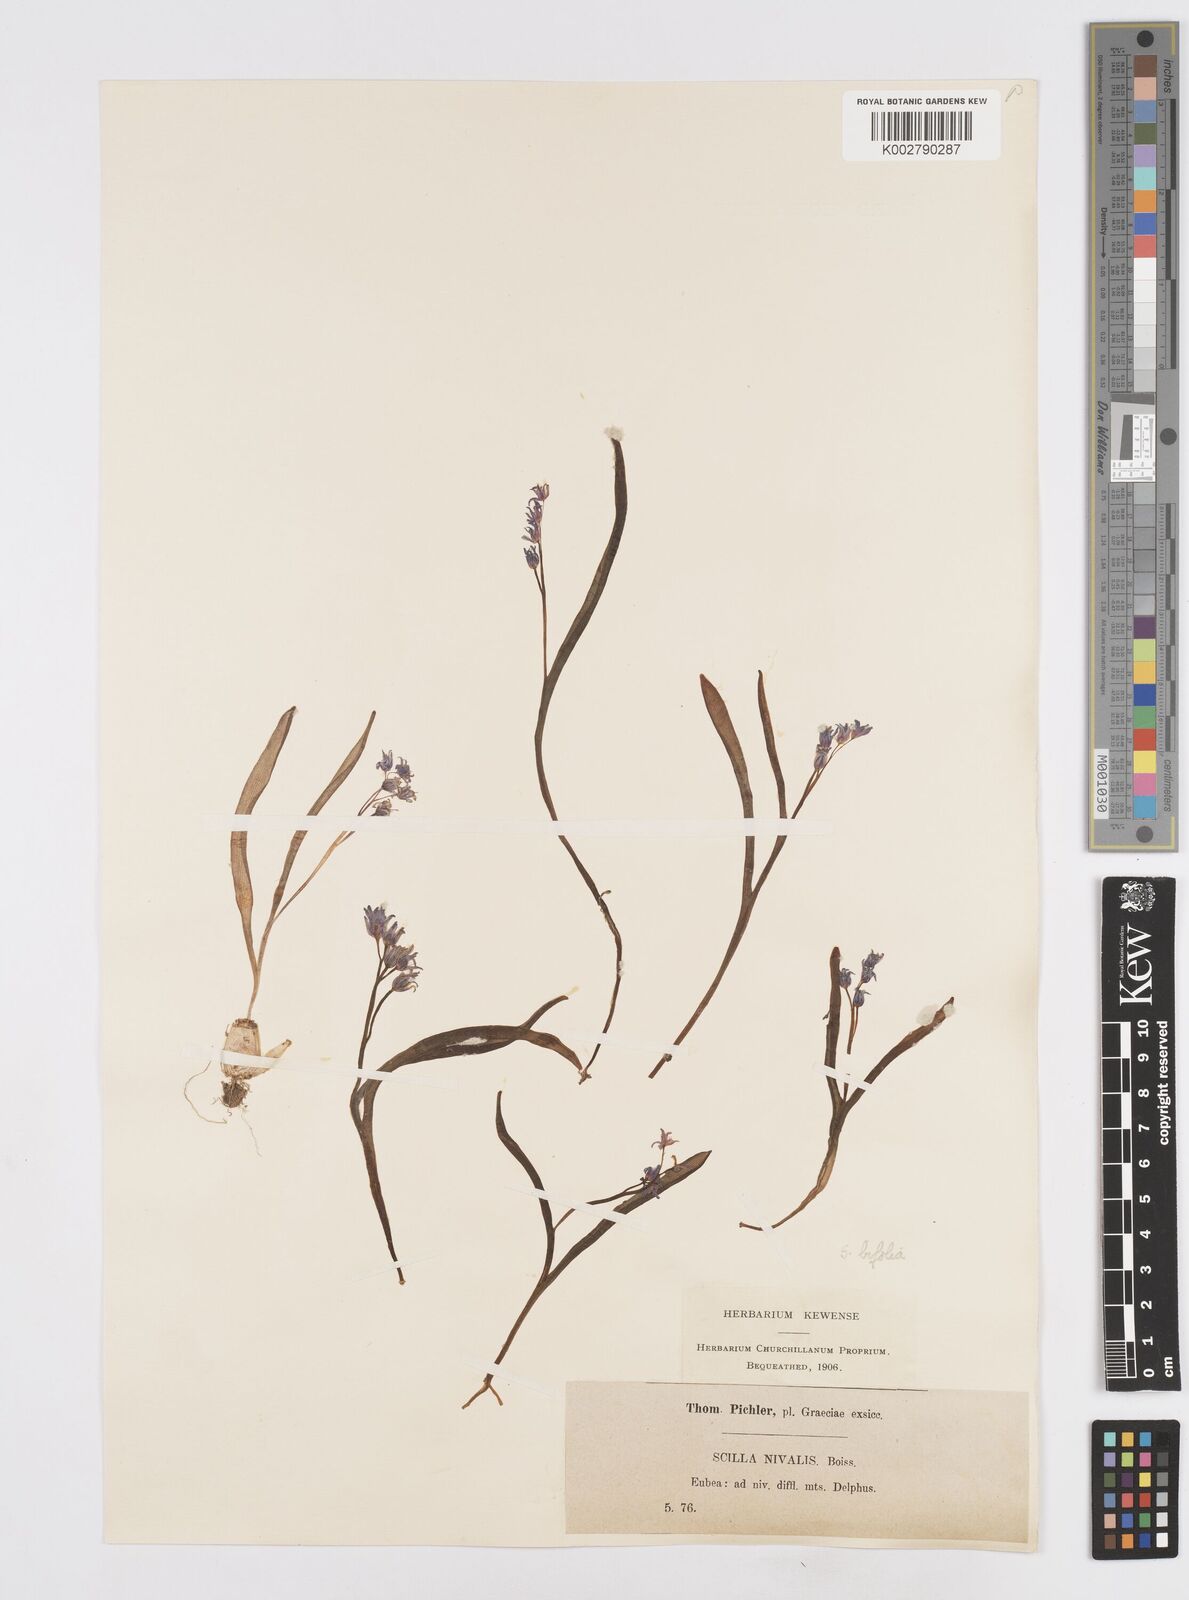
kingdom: Plantae
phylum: Tracheophyta
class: Liliopsida
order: Asparagales
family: Asparagaceae
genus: Scilla
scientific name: Scilla nivalis
